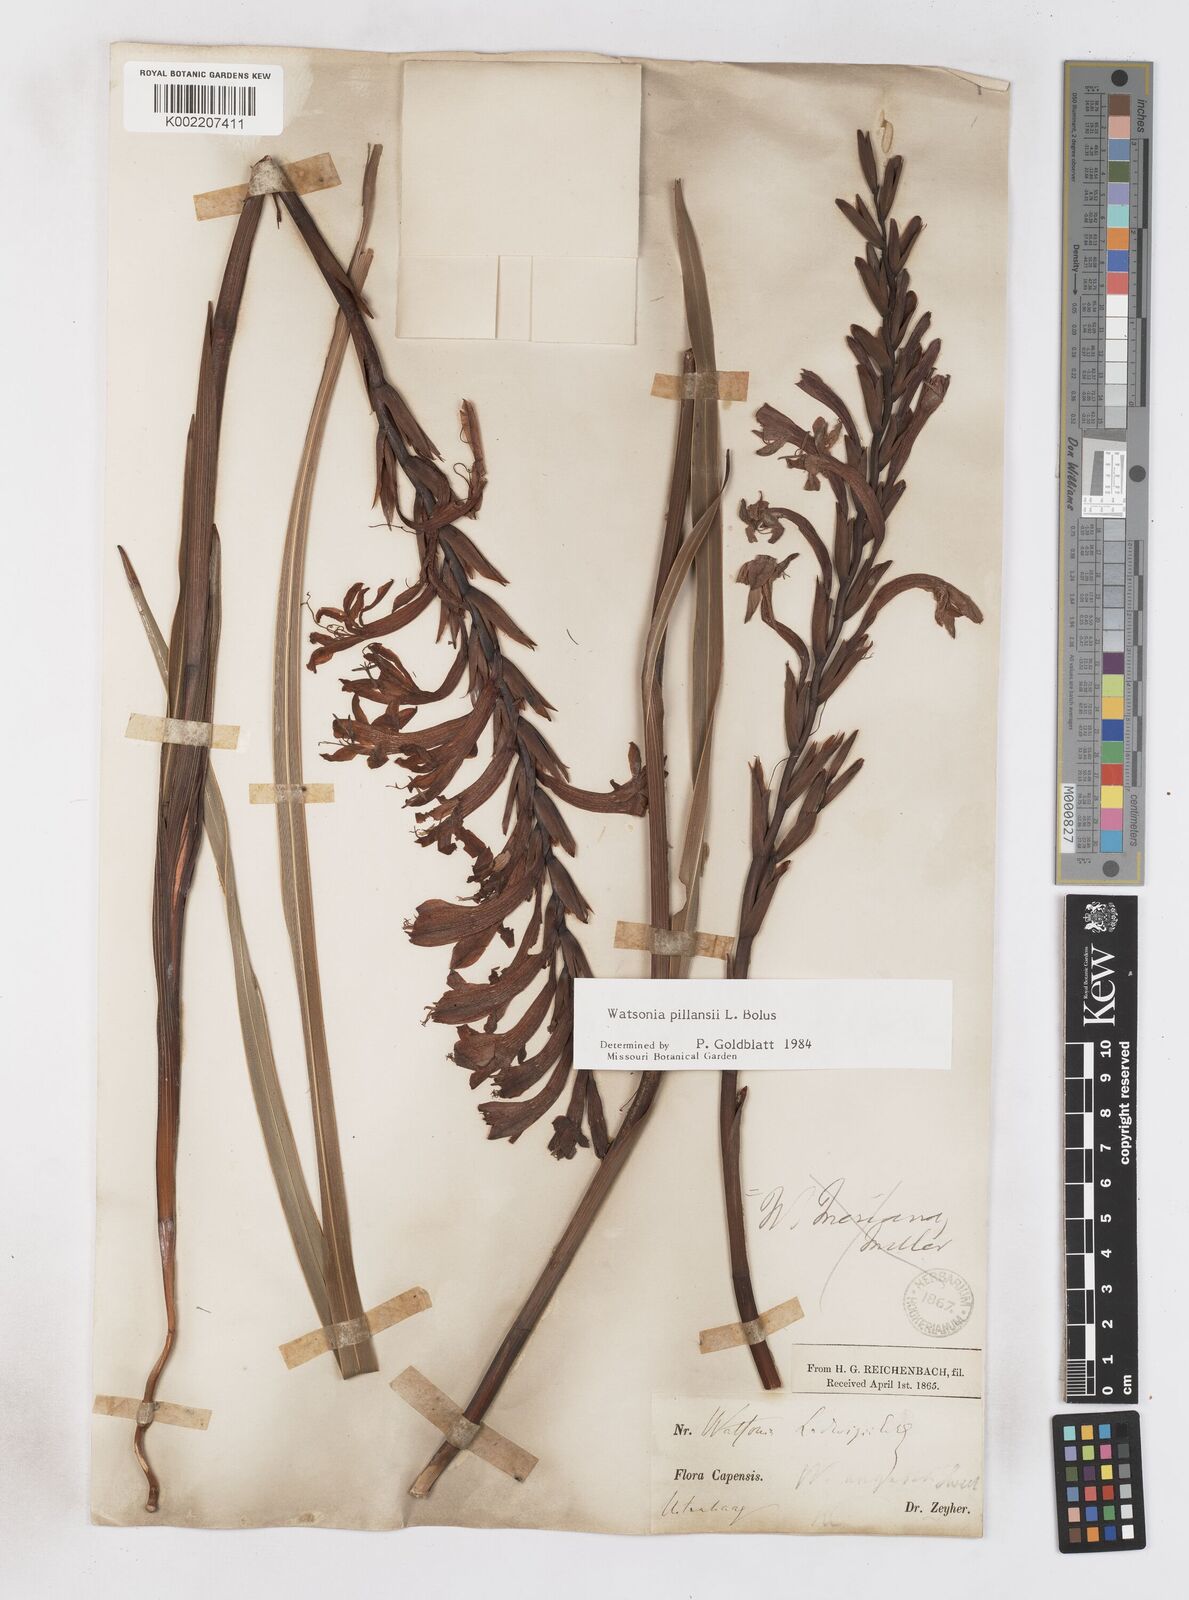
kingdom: Plantae
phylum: Tracheophyta
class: Liliopsida
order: Asparagales
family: Iridaceae
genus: Watsonia
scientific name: Watsonia pillansii
